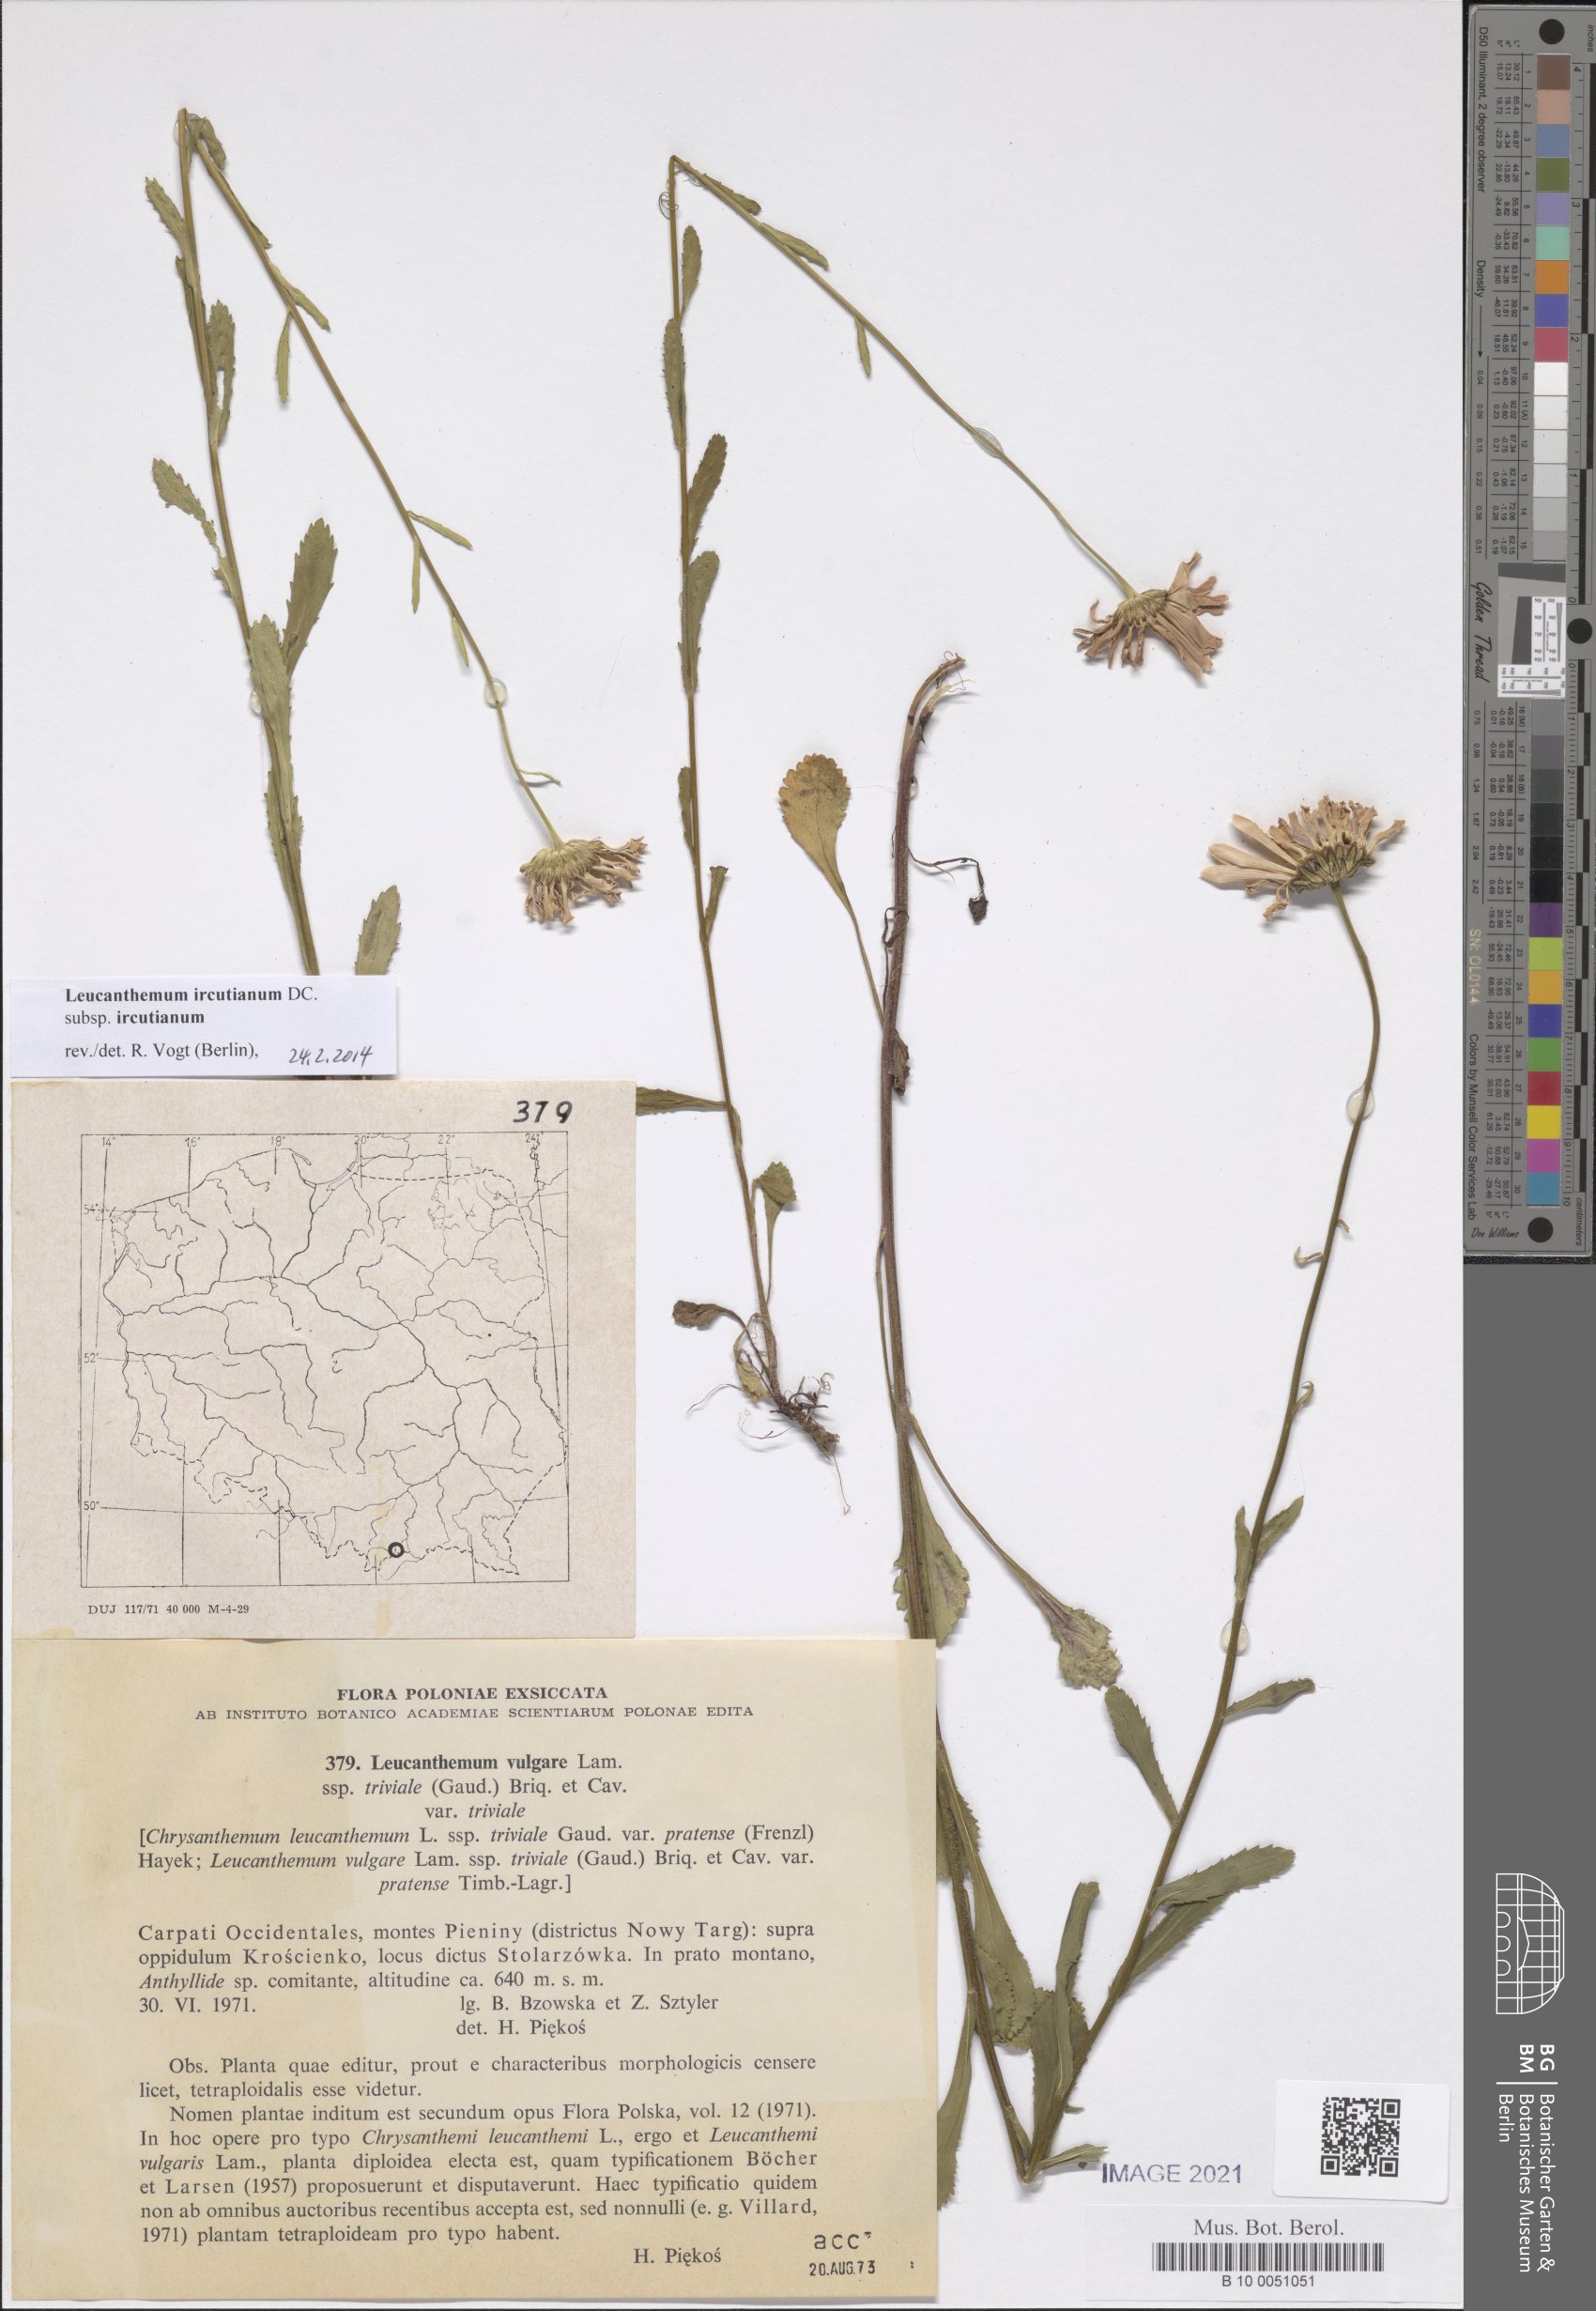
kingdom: Plantae
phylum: Tracheophyta
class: Magnoliopsida
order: Asterales
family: Asteraceae
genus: Leucanthemum
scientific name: Leucanthemum ircutianum
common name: Daisy
